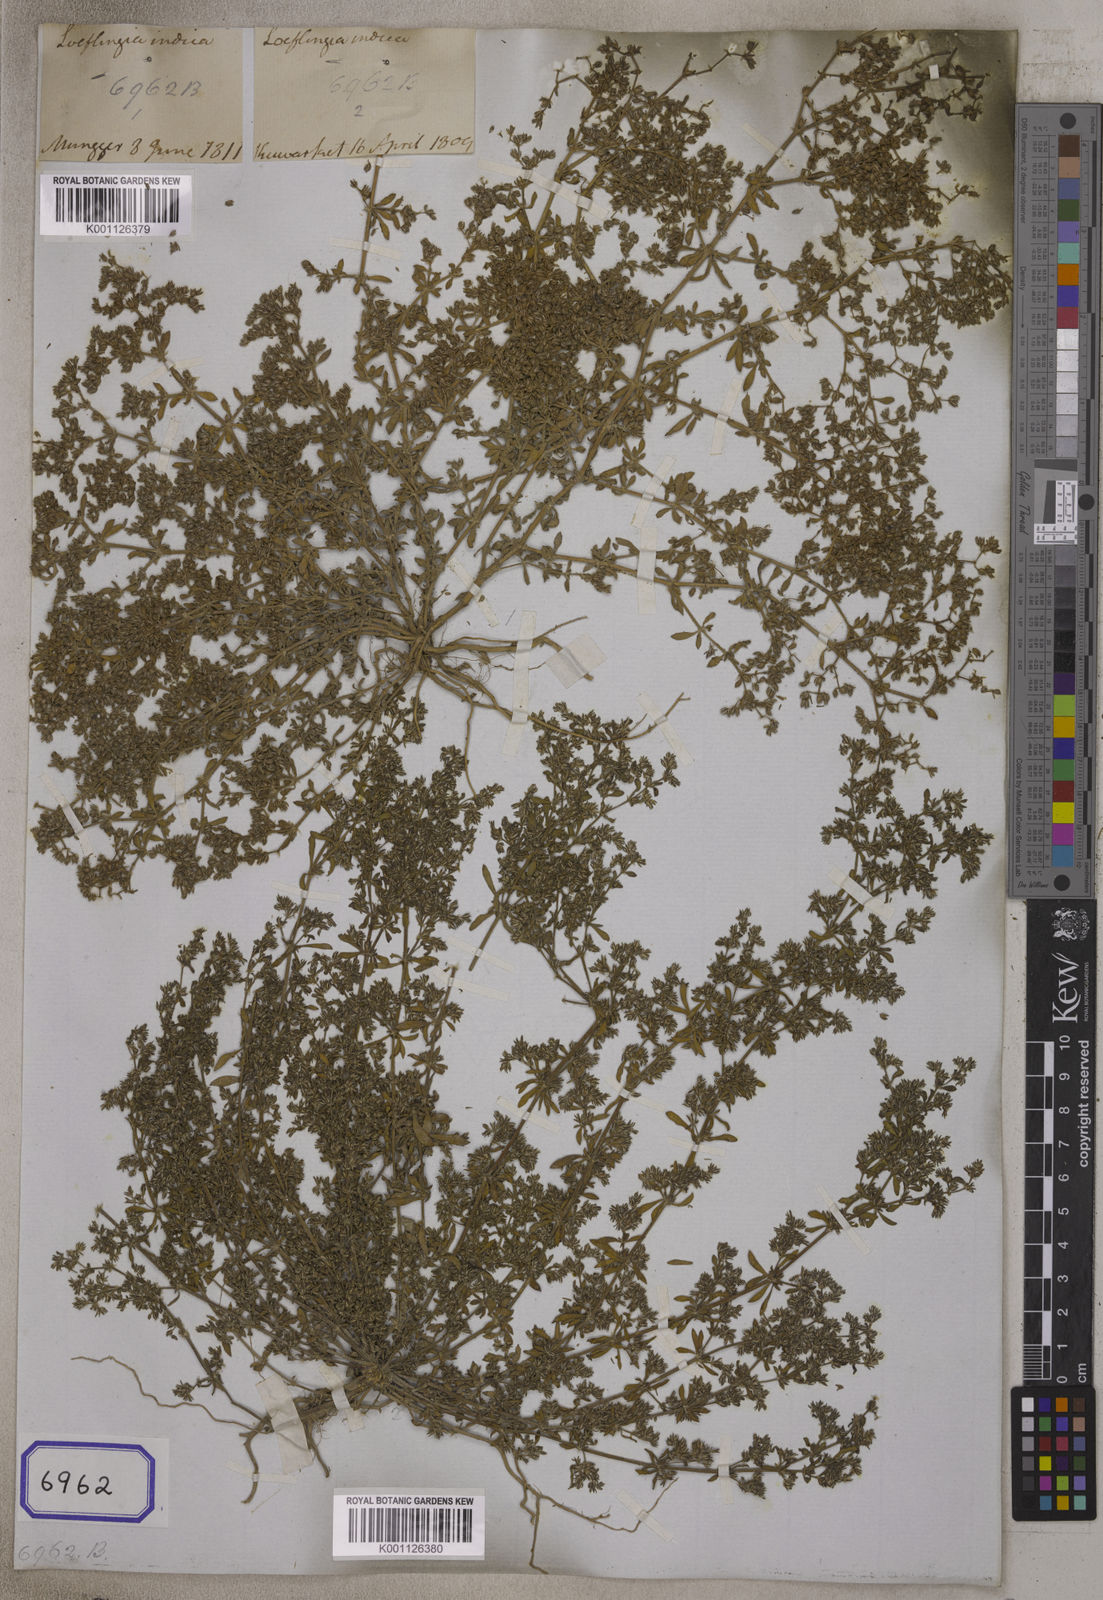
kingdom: Plantae
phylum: Tracheophyta
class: Magnoliopsida
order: Caryophyllales
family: Caryophyllaceae
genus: Hapalosia
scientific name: Hapalosia
